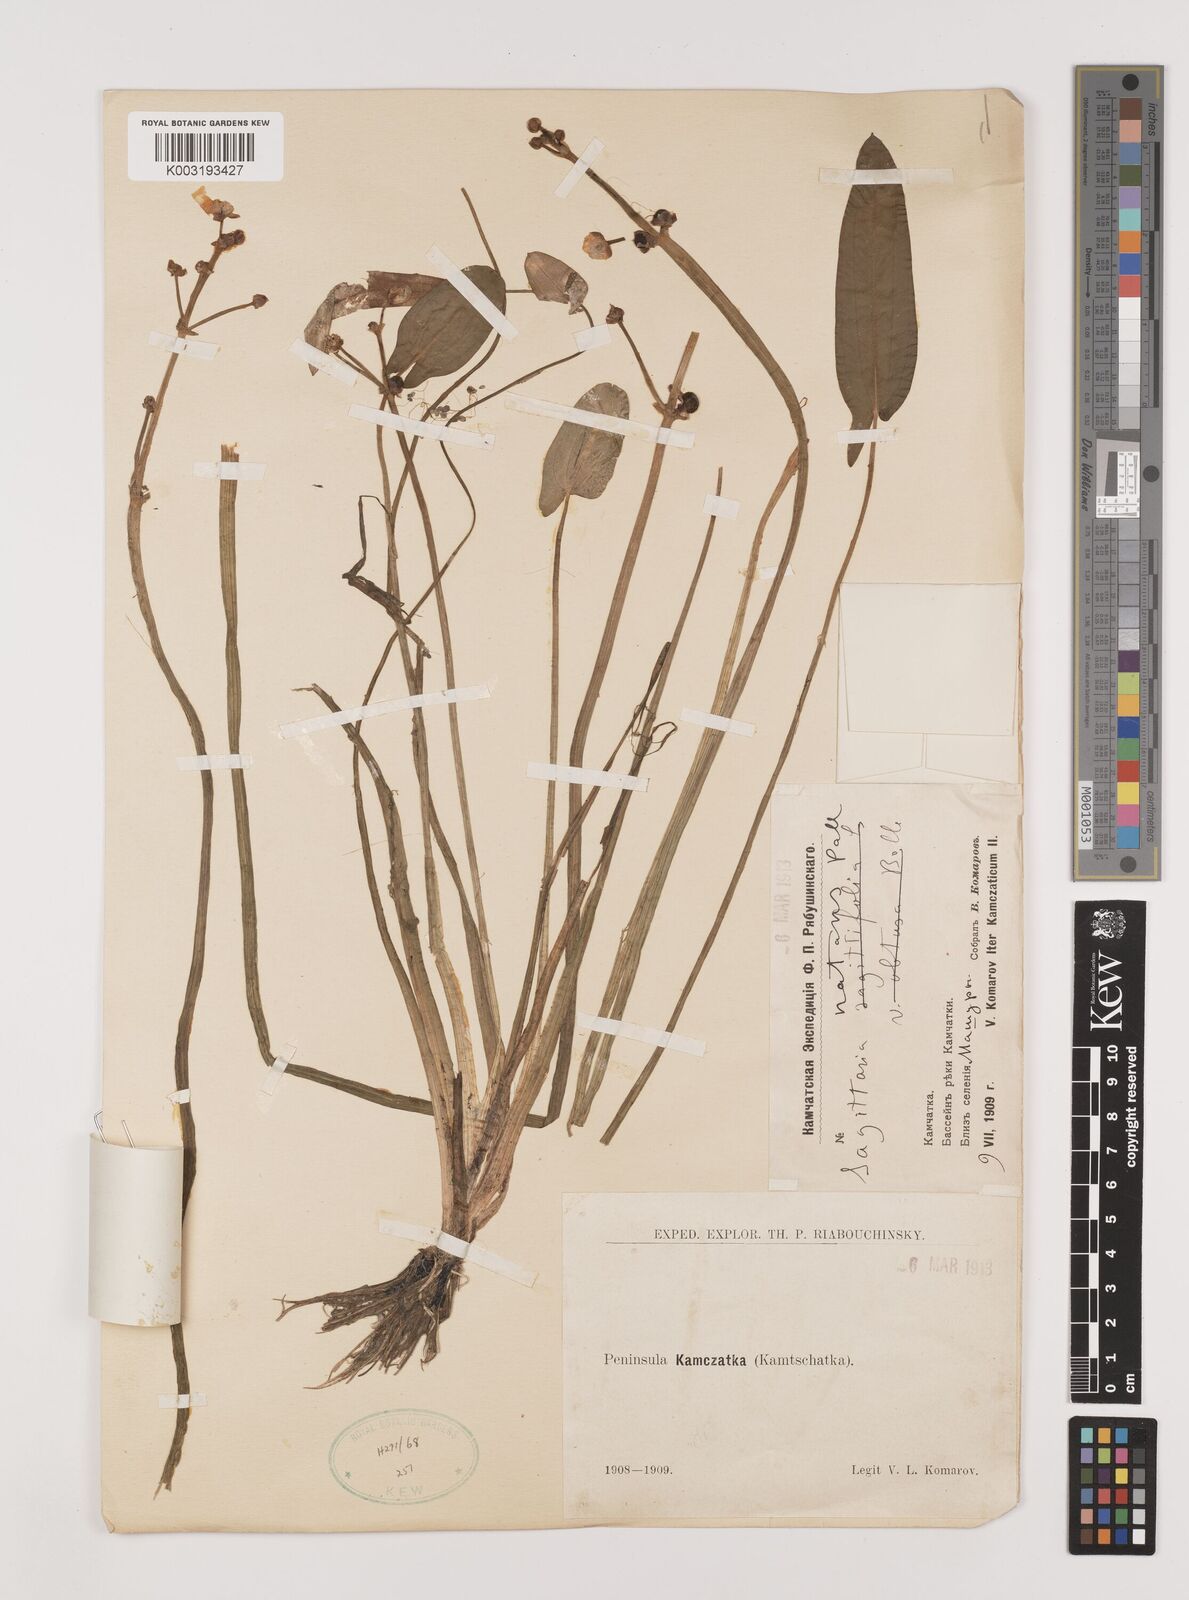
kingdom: Plantae
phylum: Tracheophyta
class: Liliopsida
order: Alismatales
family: Alismataceae
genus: Sagittaria
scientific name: Sagittaria natans
